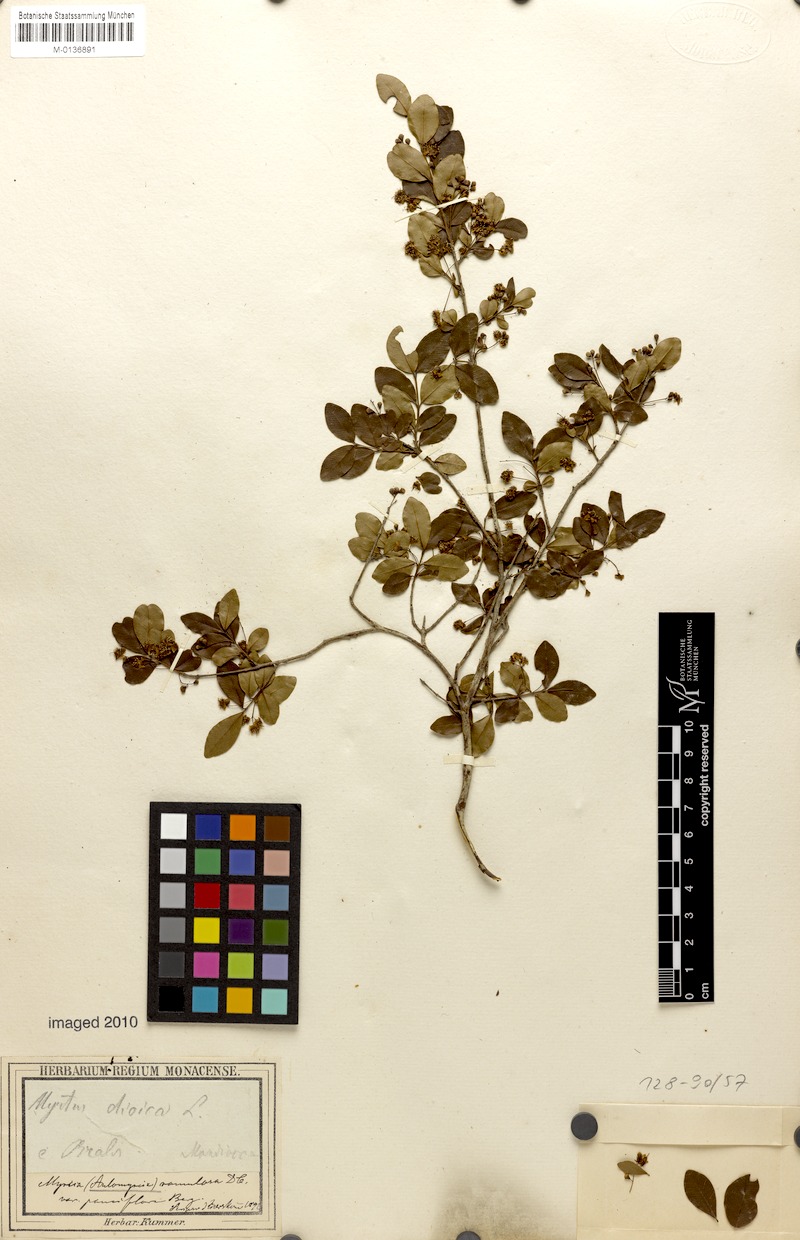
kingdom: Plantae
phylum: Tracheophyta
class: Magnoliopsida
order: Myrtales
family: Myrtaceae
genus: Myrcia
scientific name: Myrcia selloi
